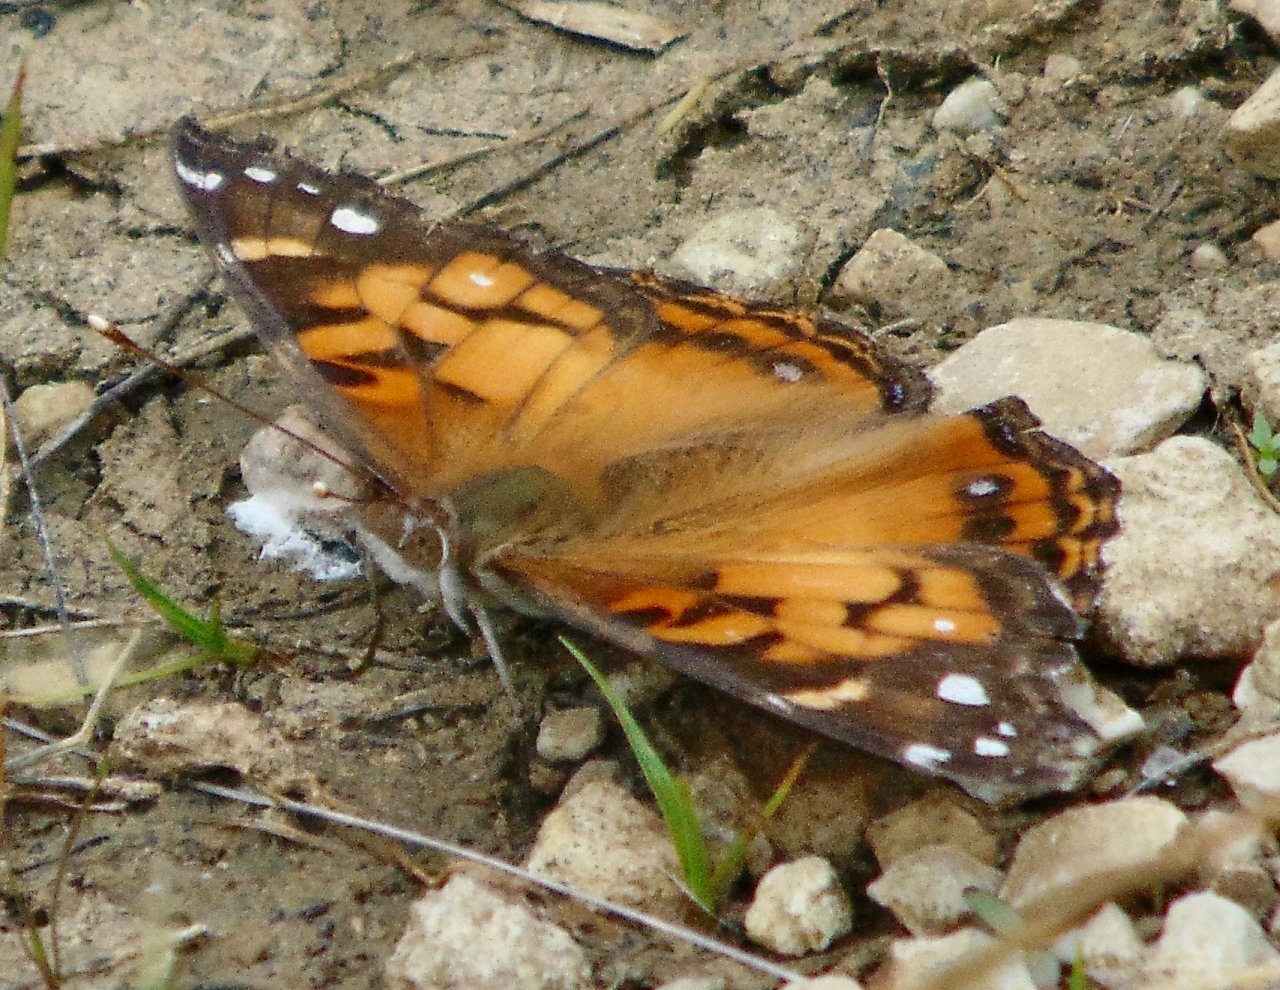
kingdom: Animalia
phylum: Arthropoda
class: Insecta
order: Lepidoptera
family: Nymphalidae
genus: Vanessa
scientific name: Vanessa virginiensis
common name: American Lady
